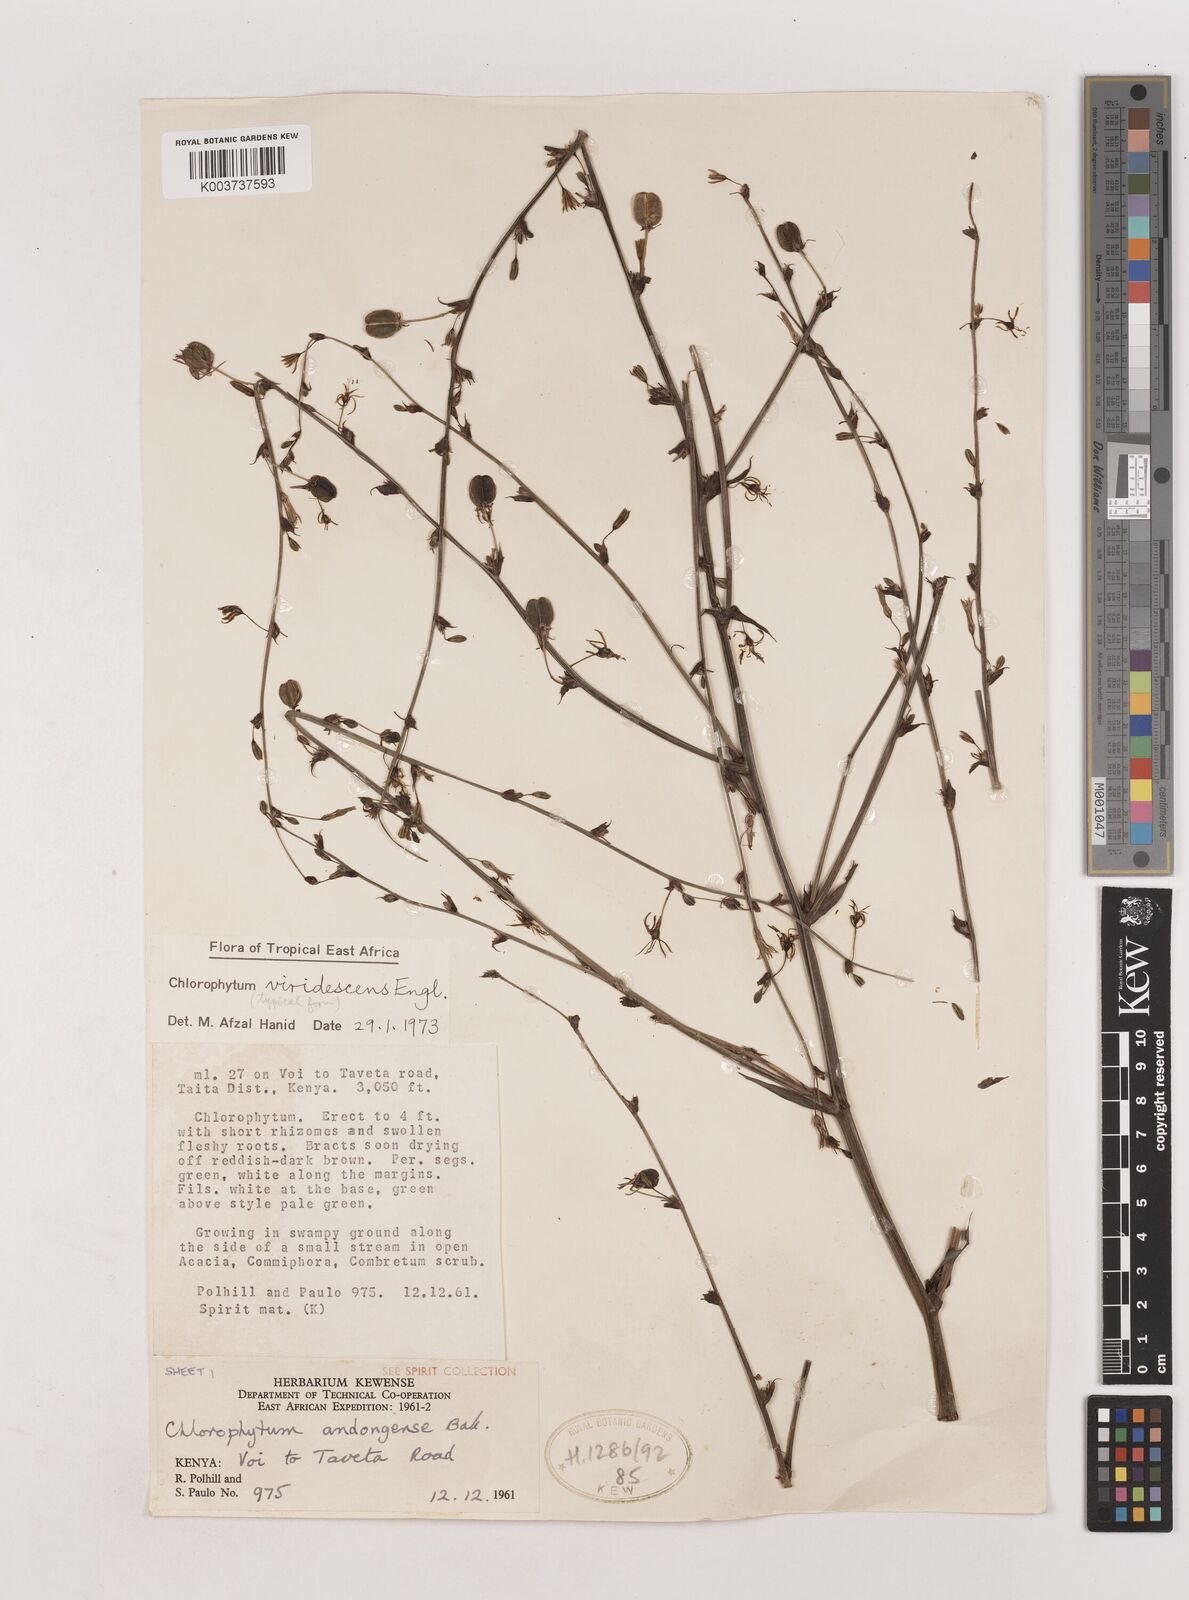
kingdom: Plantae
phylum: Tracheophyta
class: Liliopsida
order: Asparagales
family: Asparagaceae
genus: Chlorophytum
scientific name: Chlorophytum andongense
